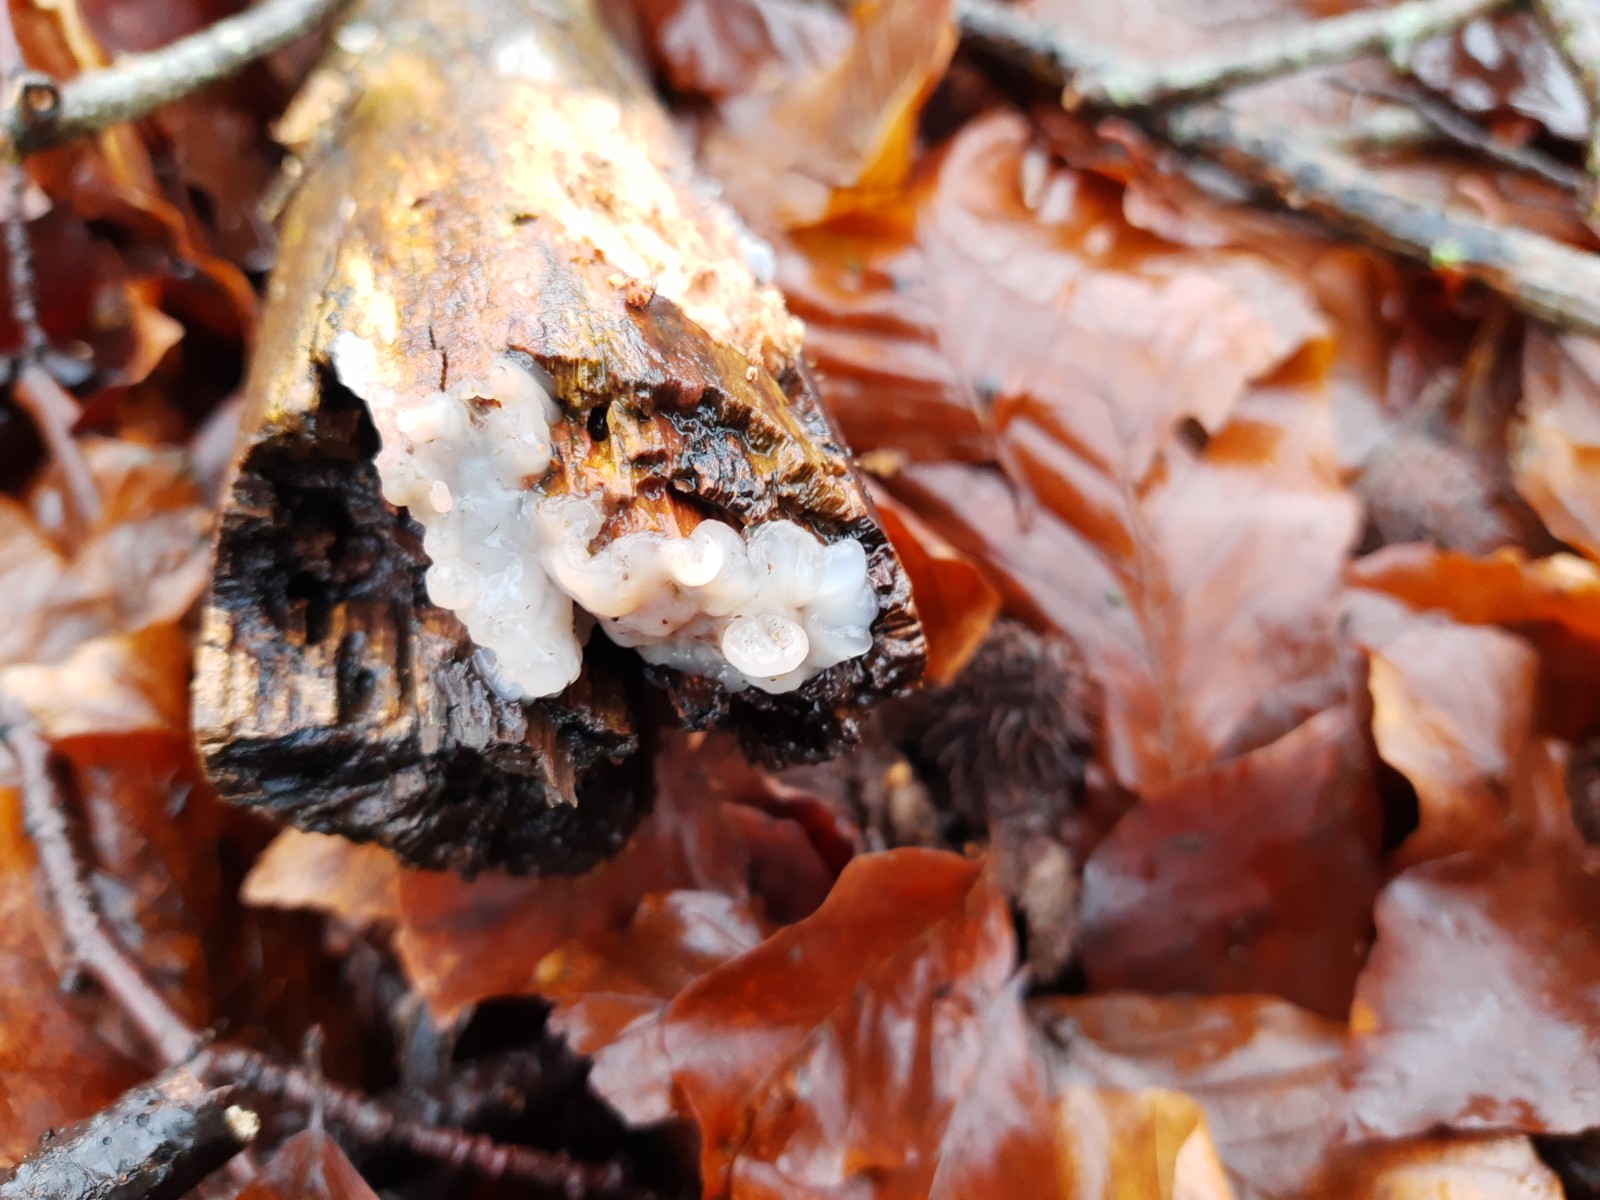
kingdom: Fungi
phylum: Basidiomycota
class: Agaricomycetes
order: Auriculariales
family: Auriculariaceae
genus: Exidia
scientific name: Exidia thuretiana
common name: hvidlig bævretop
